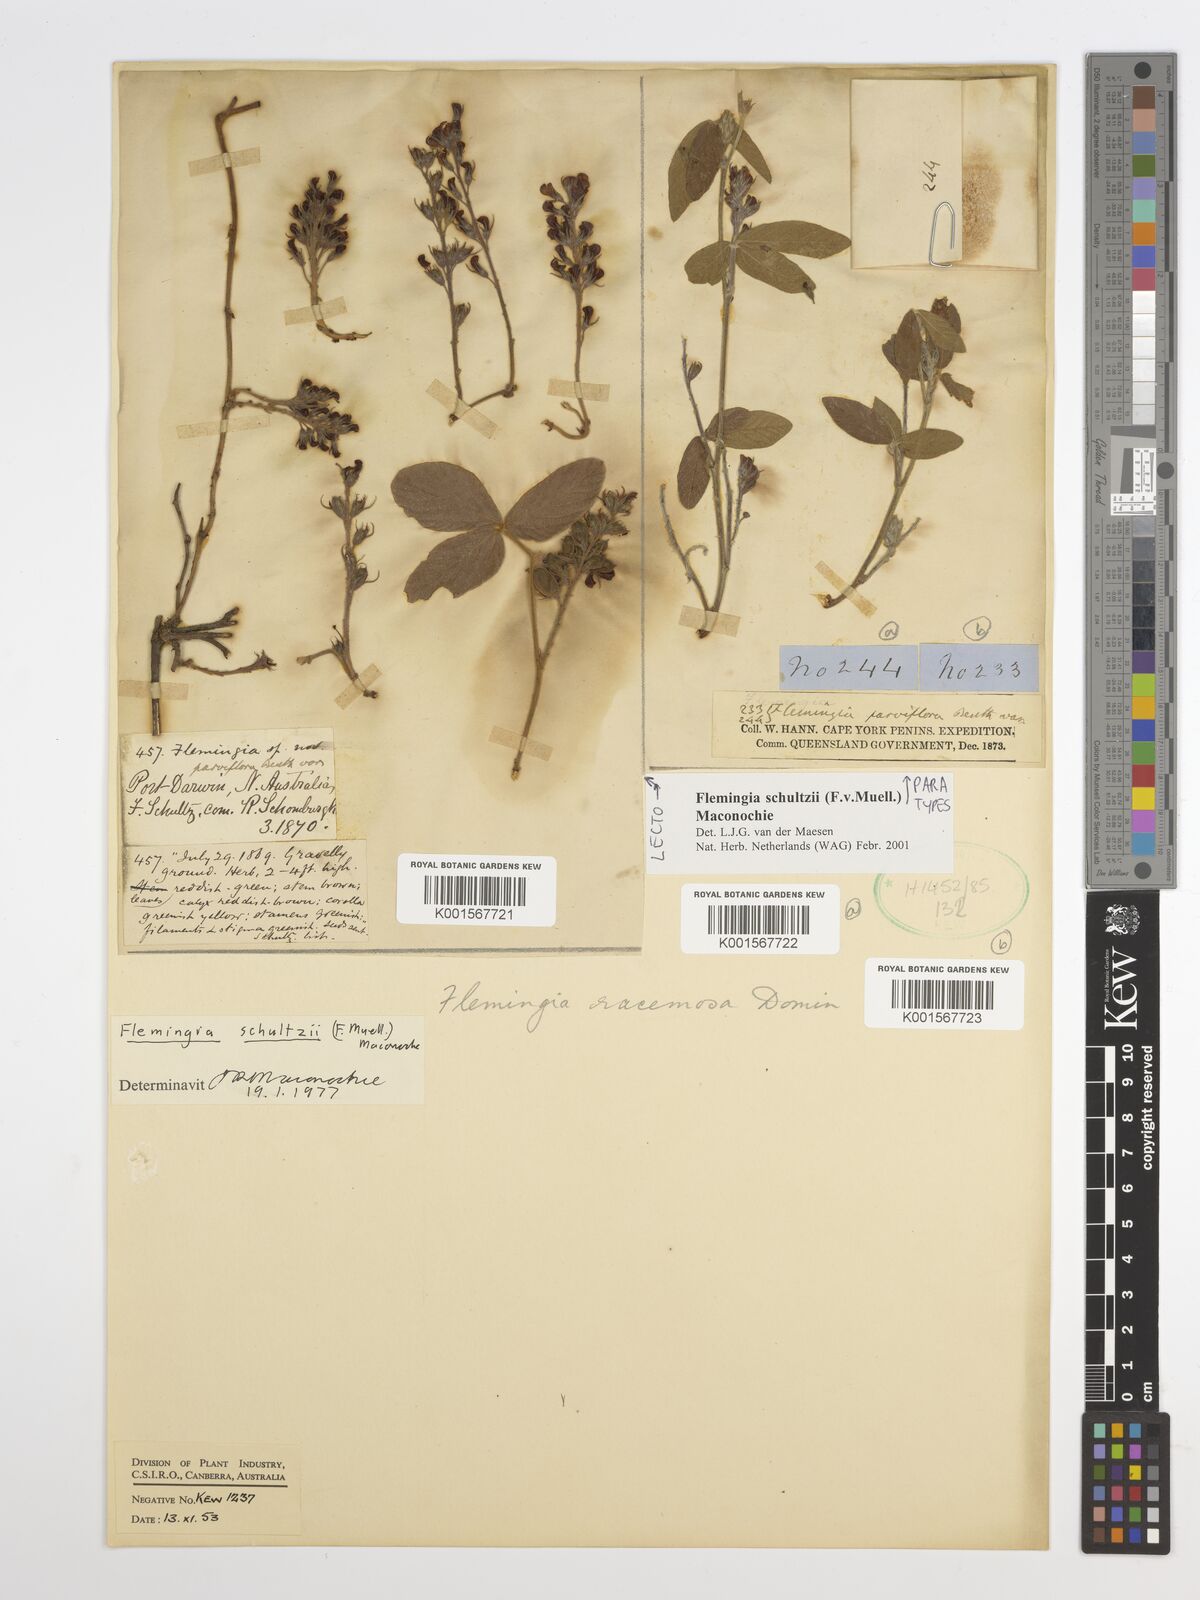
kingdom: Plantae
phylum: Tracheophyta
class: Magnoliopsida
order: Fabales
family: Fabaceae
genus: Flemingia
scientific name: Flemingia parviflora
